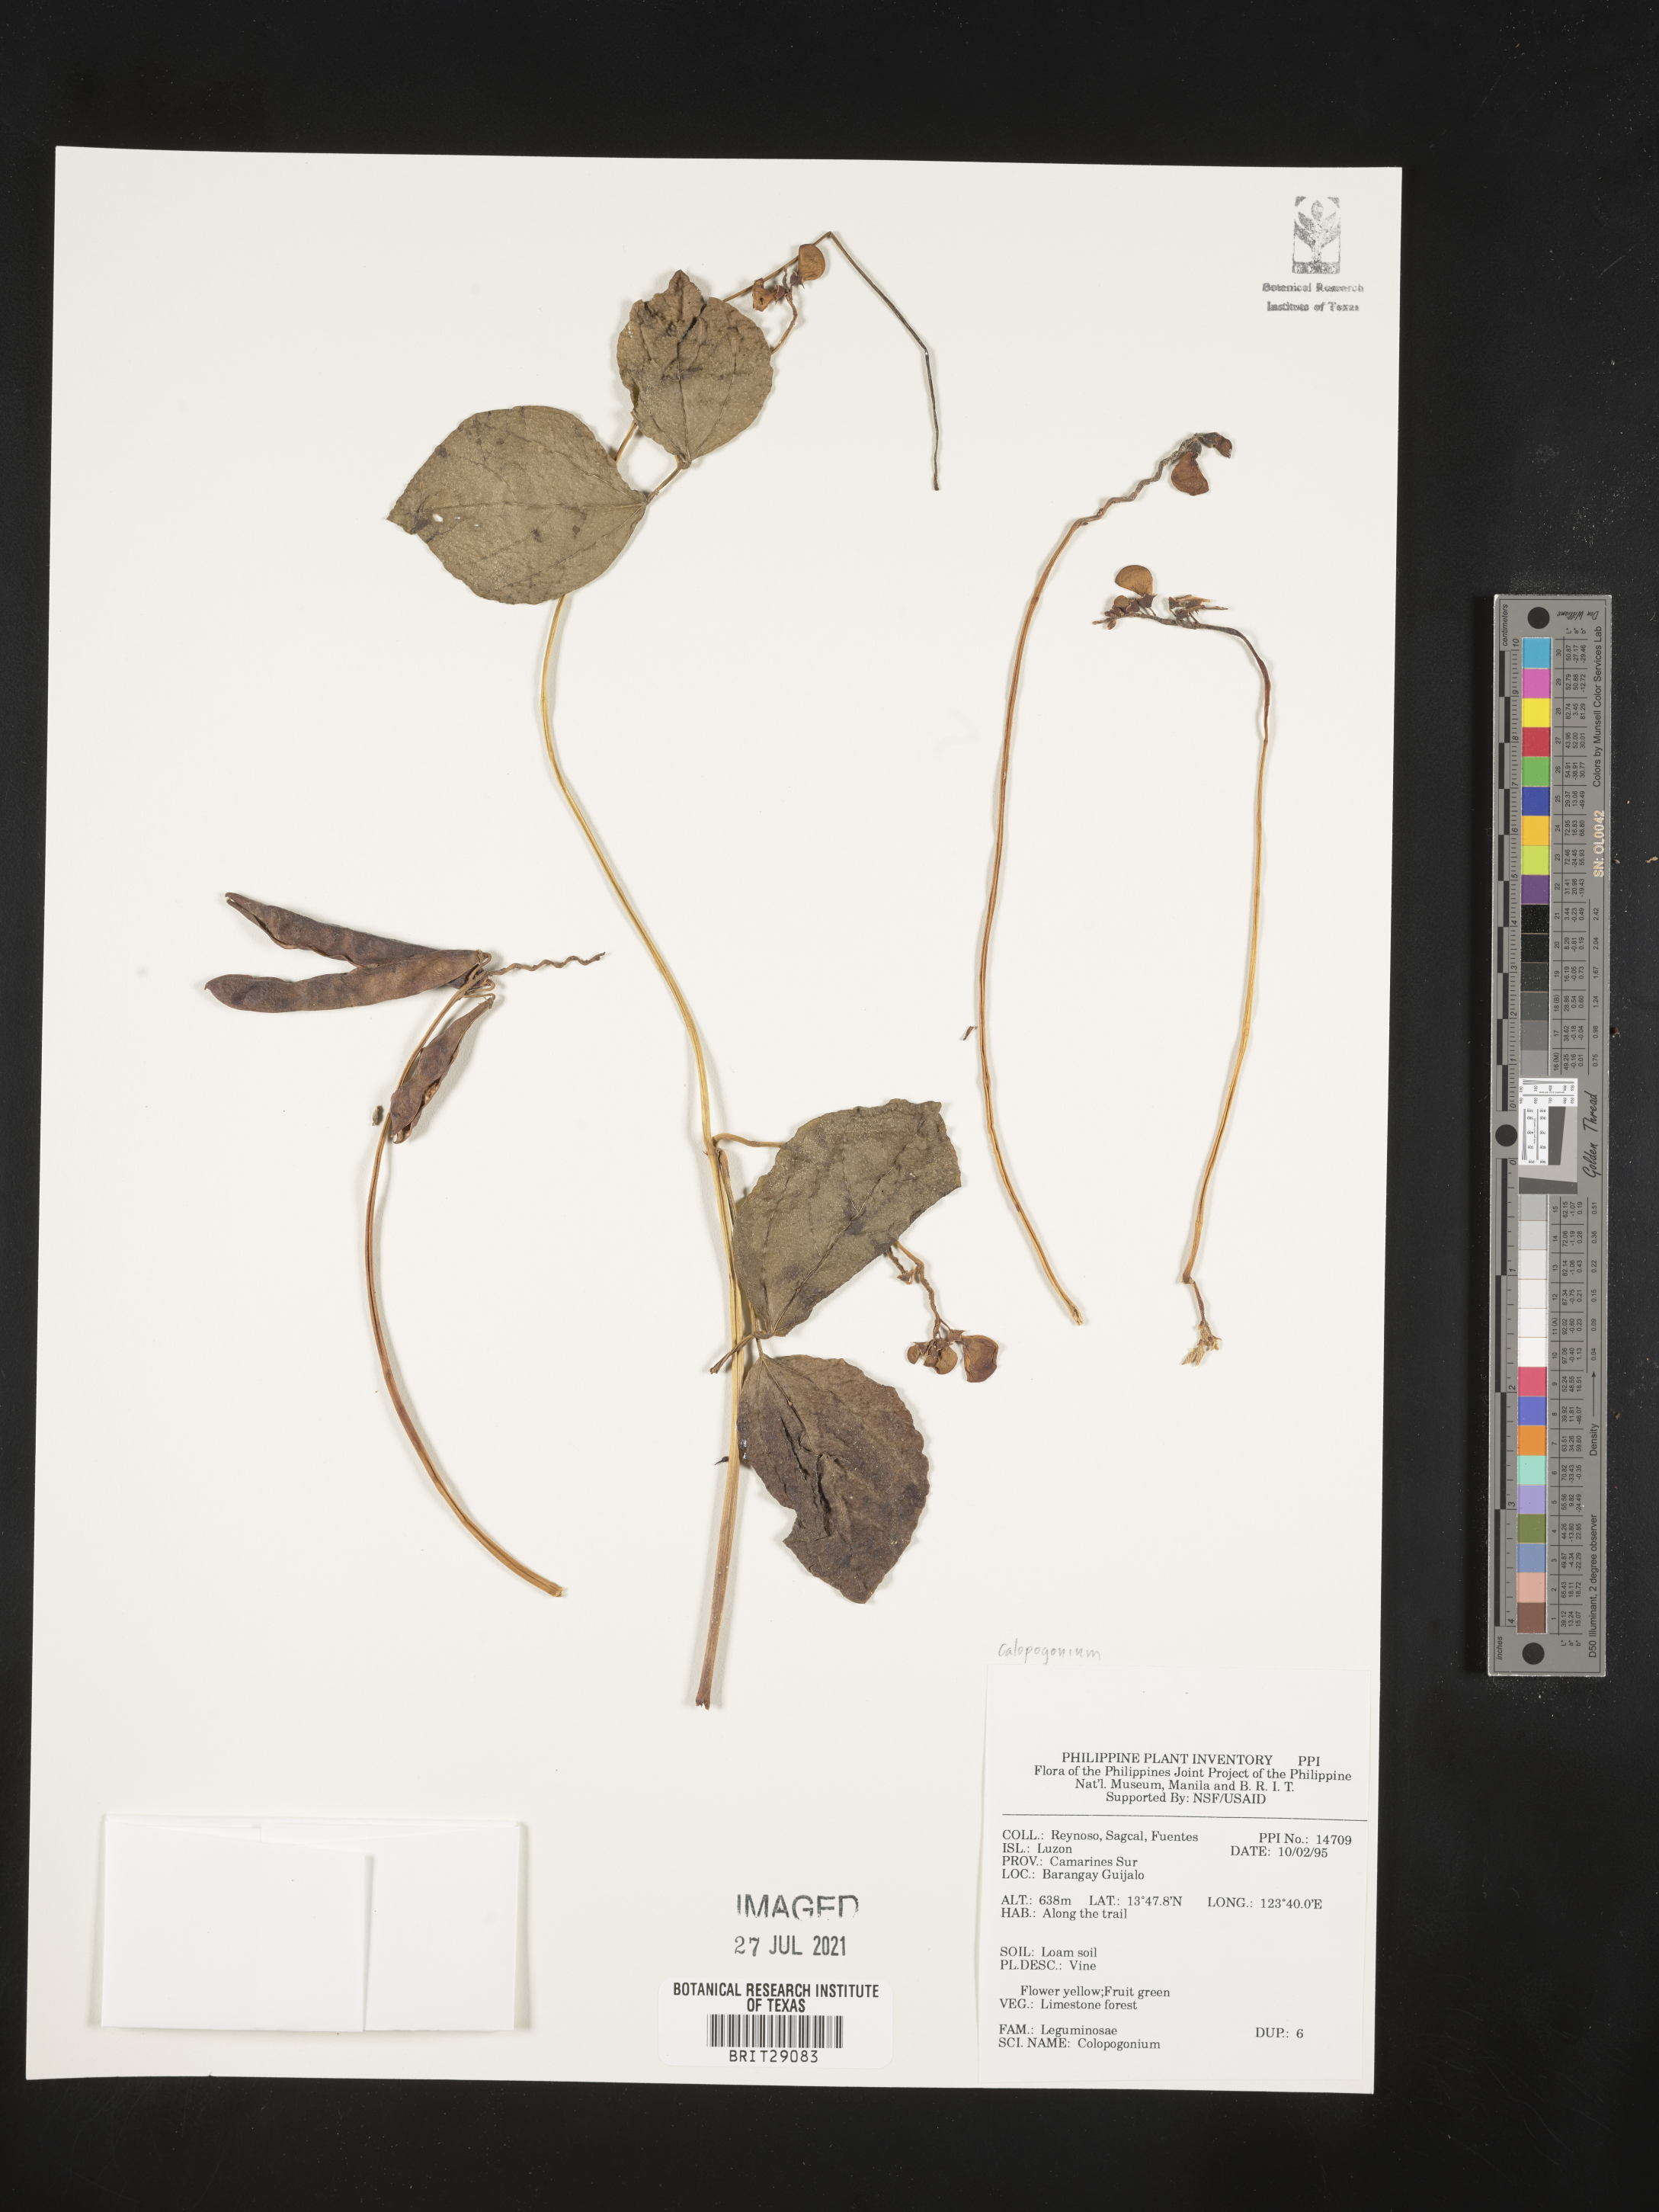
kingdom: Plantae
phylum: Tracheophyta
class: Magnoliopsida
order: Fabales
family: Fabaceae
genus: Calopogonium
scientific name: Calopogonium
